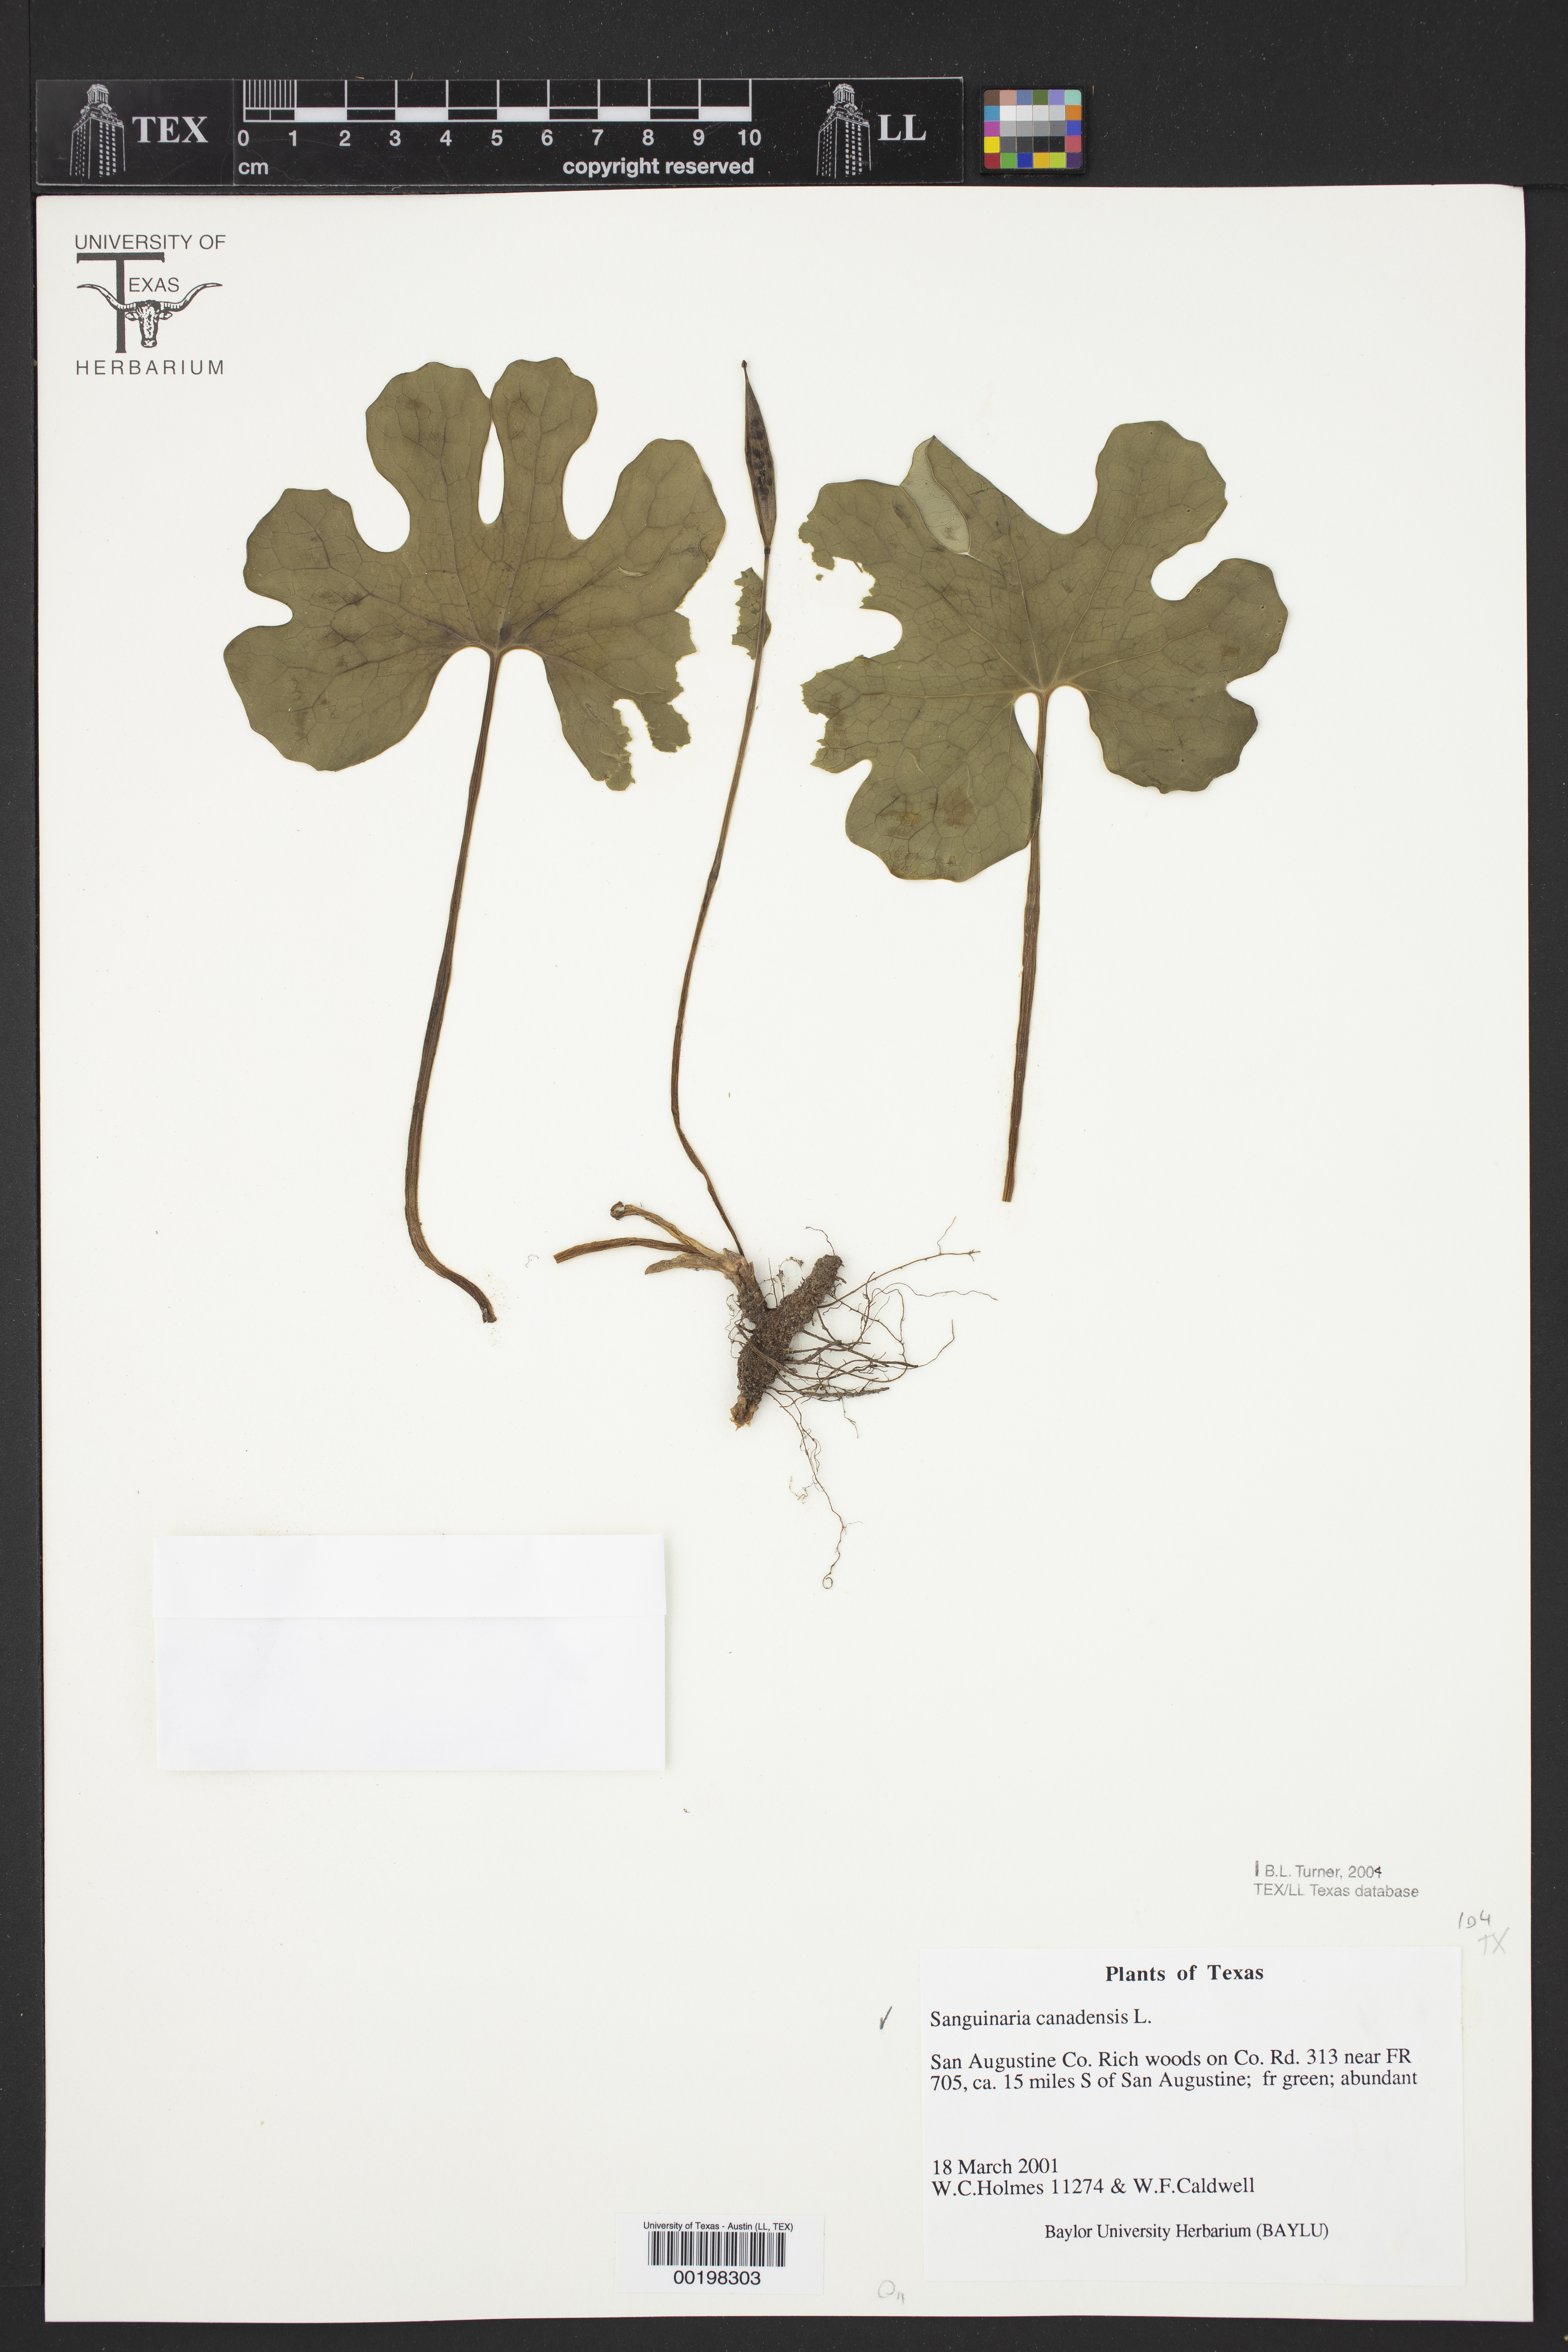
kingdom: Plantae
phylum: Tracheophyta
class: Magnoliopsida
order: Ranunculales
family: Papaveraceae
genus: Sanguinaria
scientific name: Sanguinaria canadensis
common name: Bloodroot
